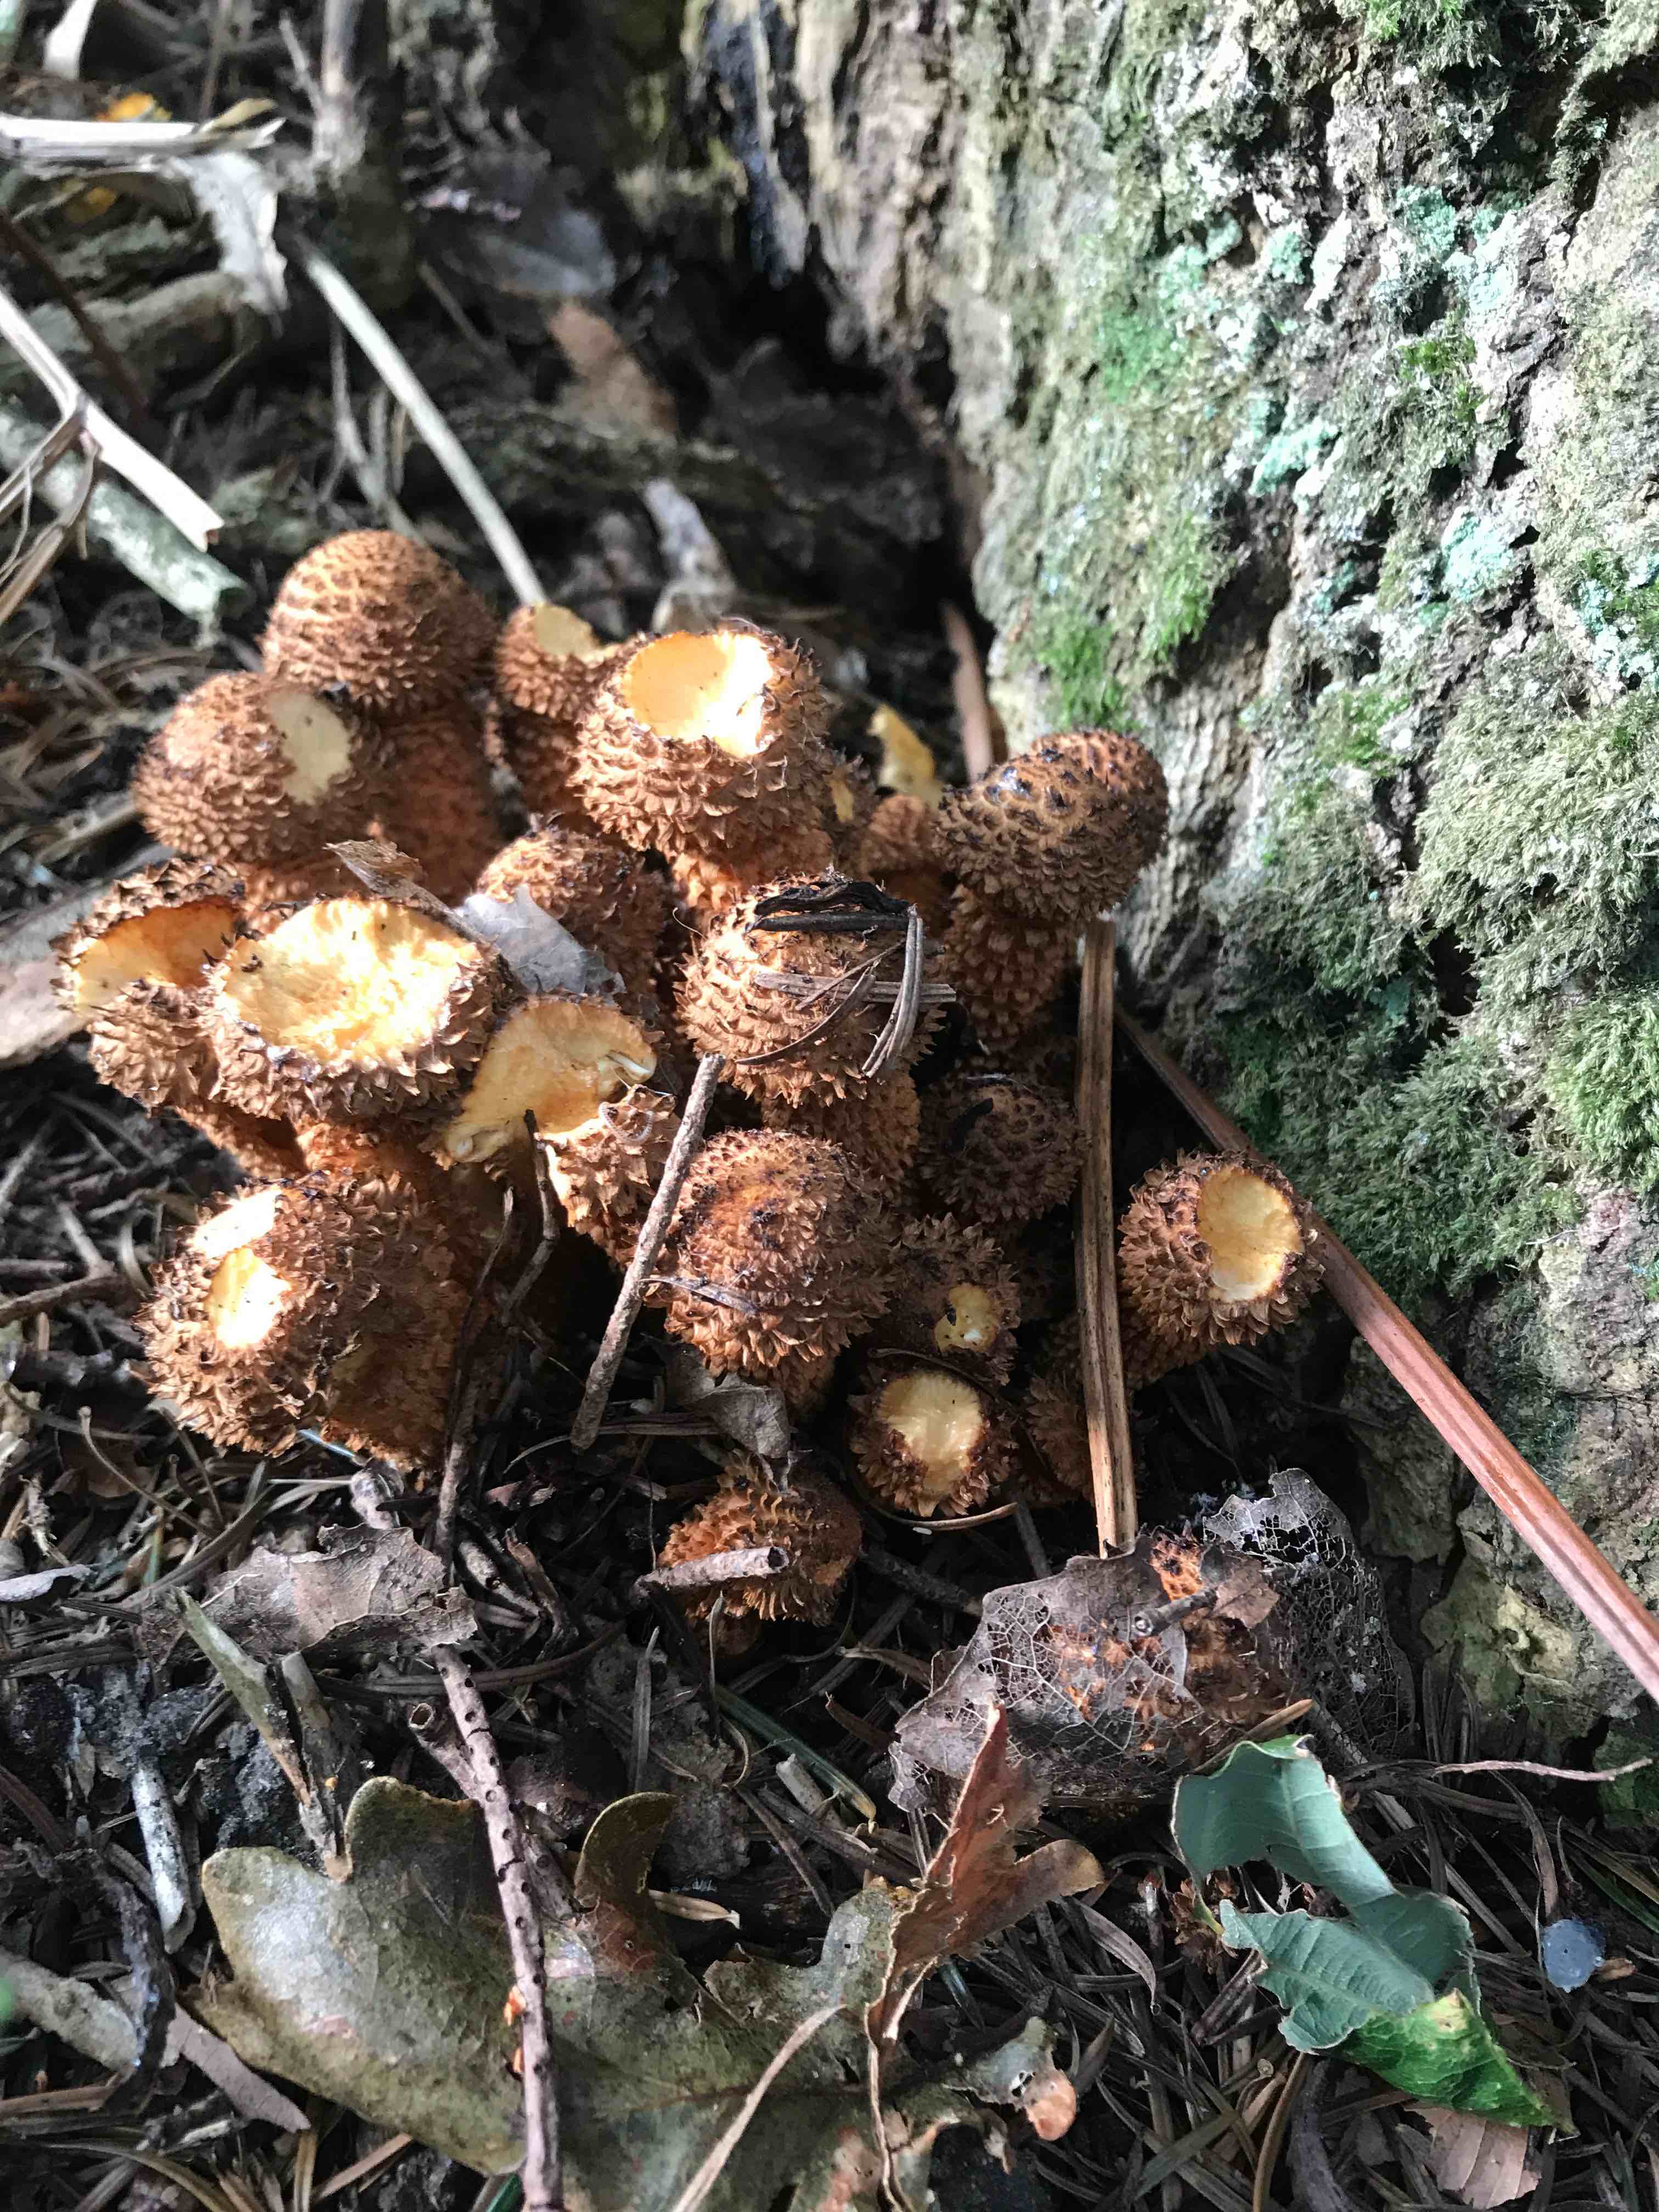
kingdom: Fungi
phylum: Basidiomycota
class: Agaricomycetes
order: Agaricales
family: Strophariaceae
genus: Pholiota
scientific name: Pholiota squarrosa
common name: krumskællet skælhat
